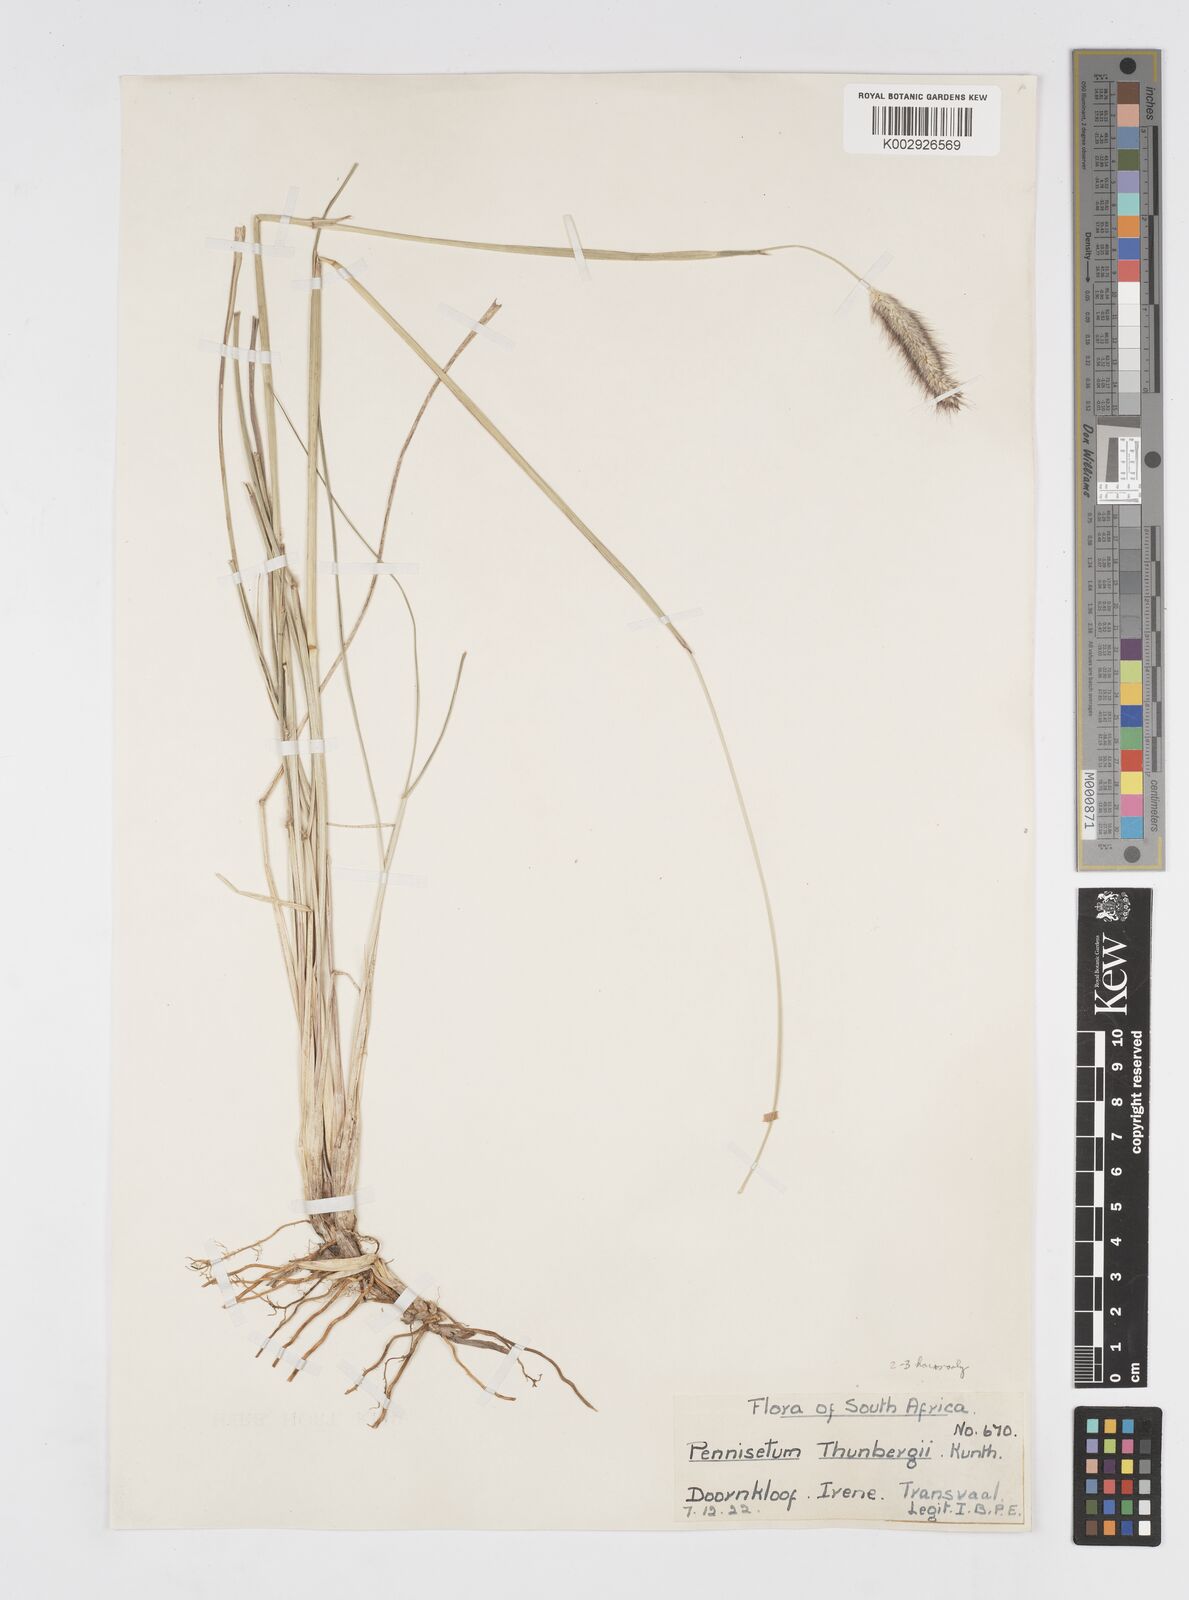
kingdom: Plantae
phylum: Tracheophyta
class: Liliopsida
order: Poales
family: Poaceae
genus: Cenchrus
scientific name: Cenchrus geniculatus
